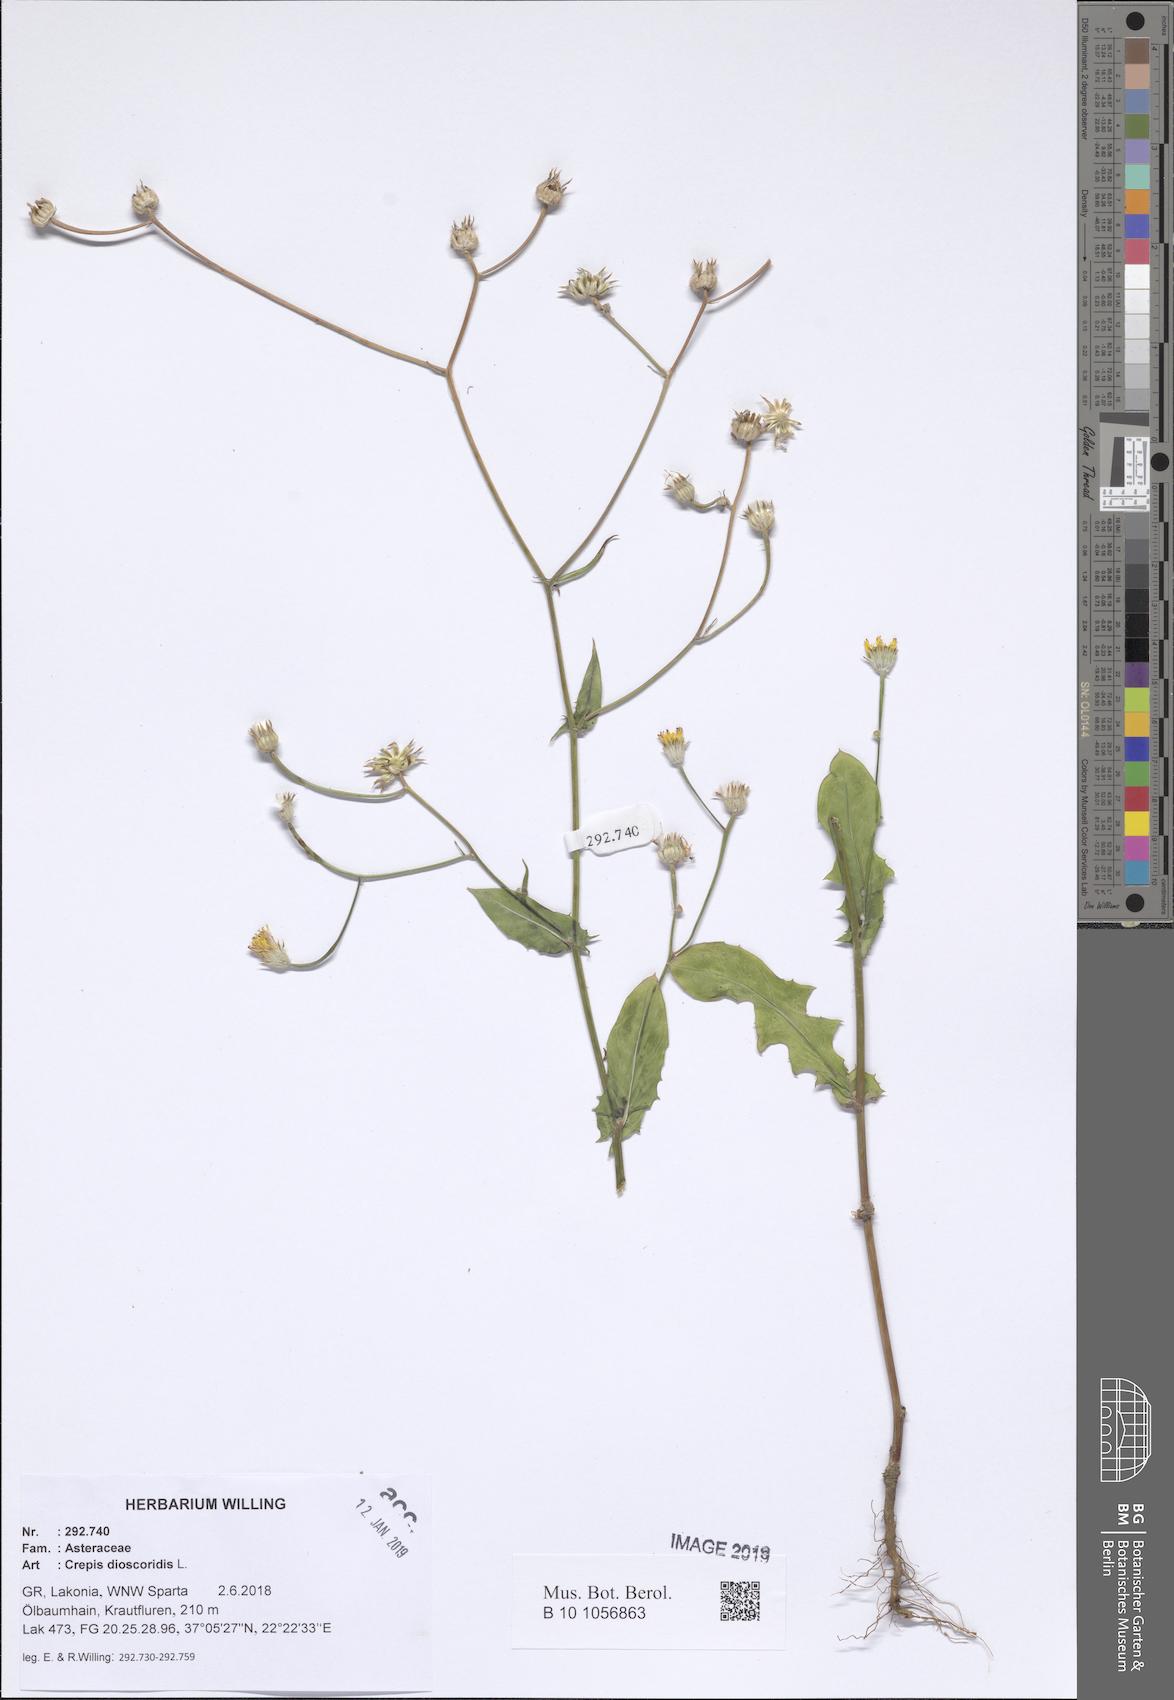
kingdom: Plantae
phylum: Tracheophyta
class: Magnoliopsida
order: Asterales
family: Asteraceae
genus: Crepis
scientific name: Crepis dioscoridis
